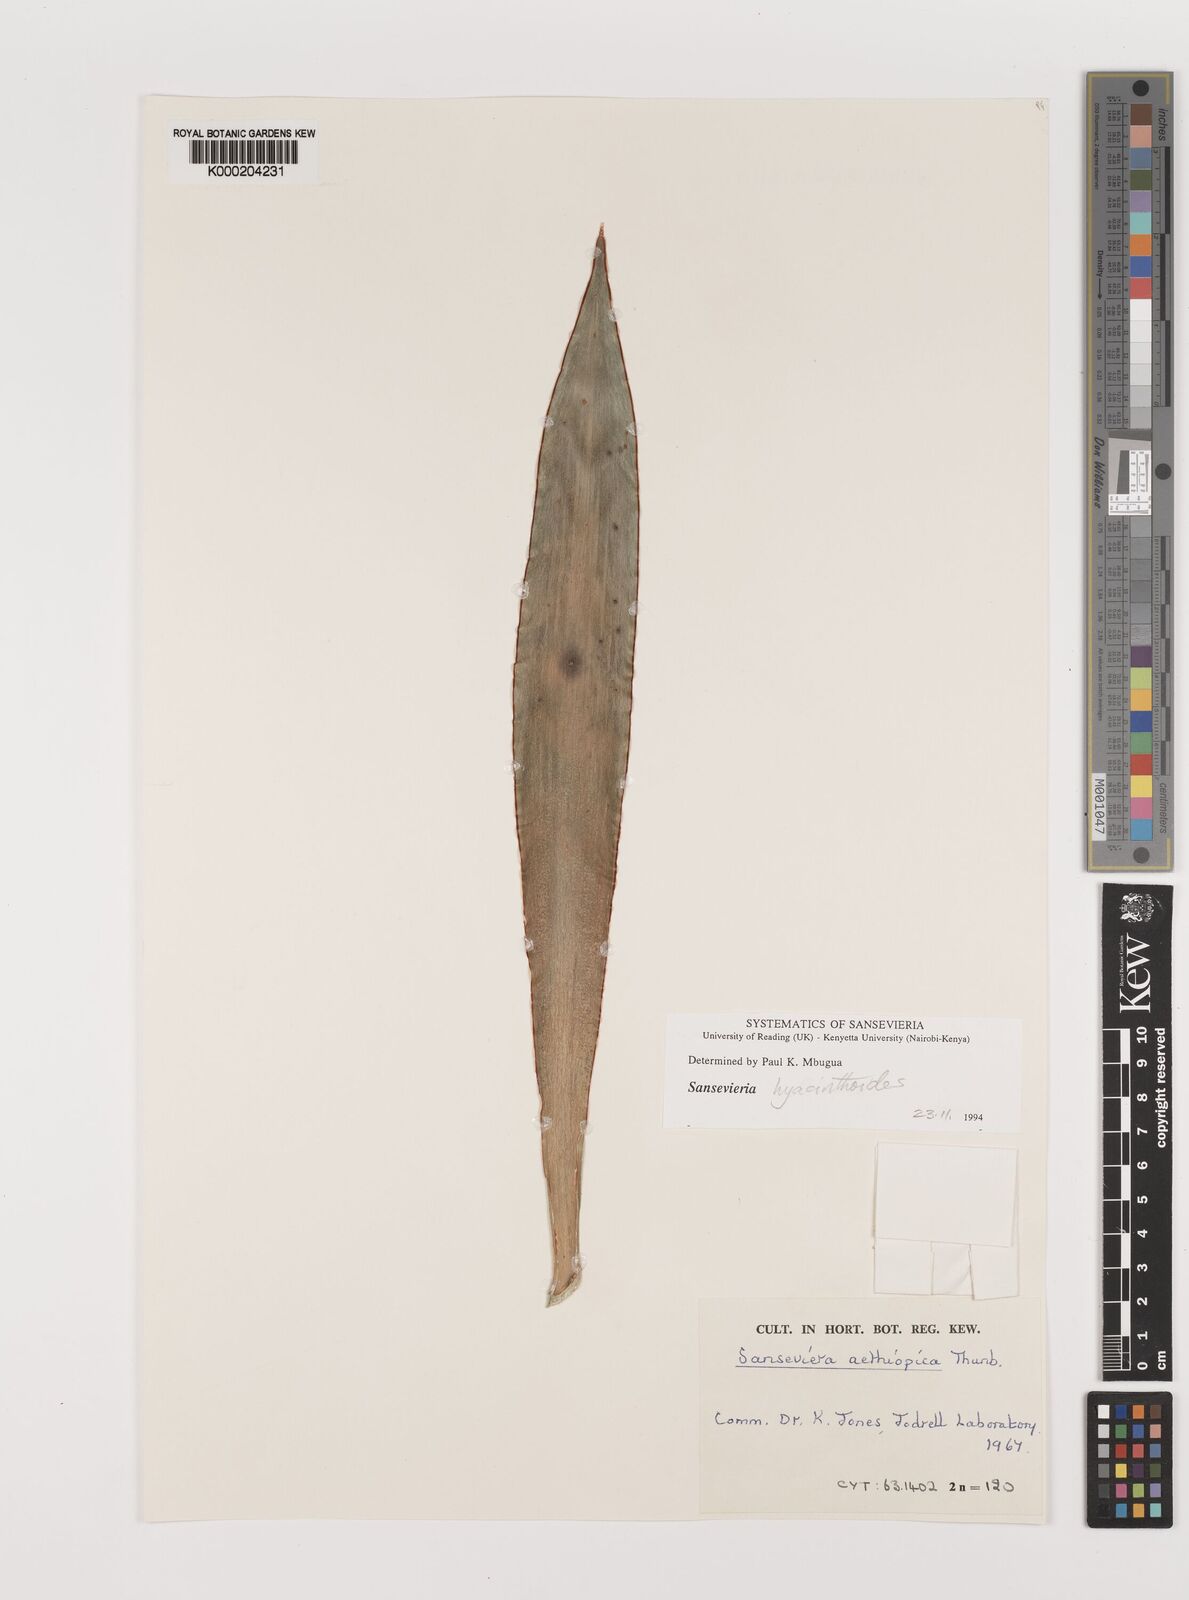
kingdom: Plantae
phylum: Tracheophyta
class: Liliopsida
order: Asparagales
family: Asparagaceae
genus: Dracaena
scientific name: Dracaena aethiopica
